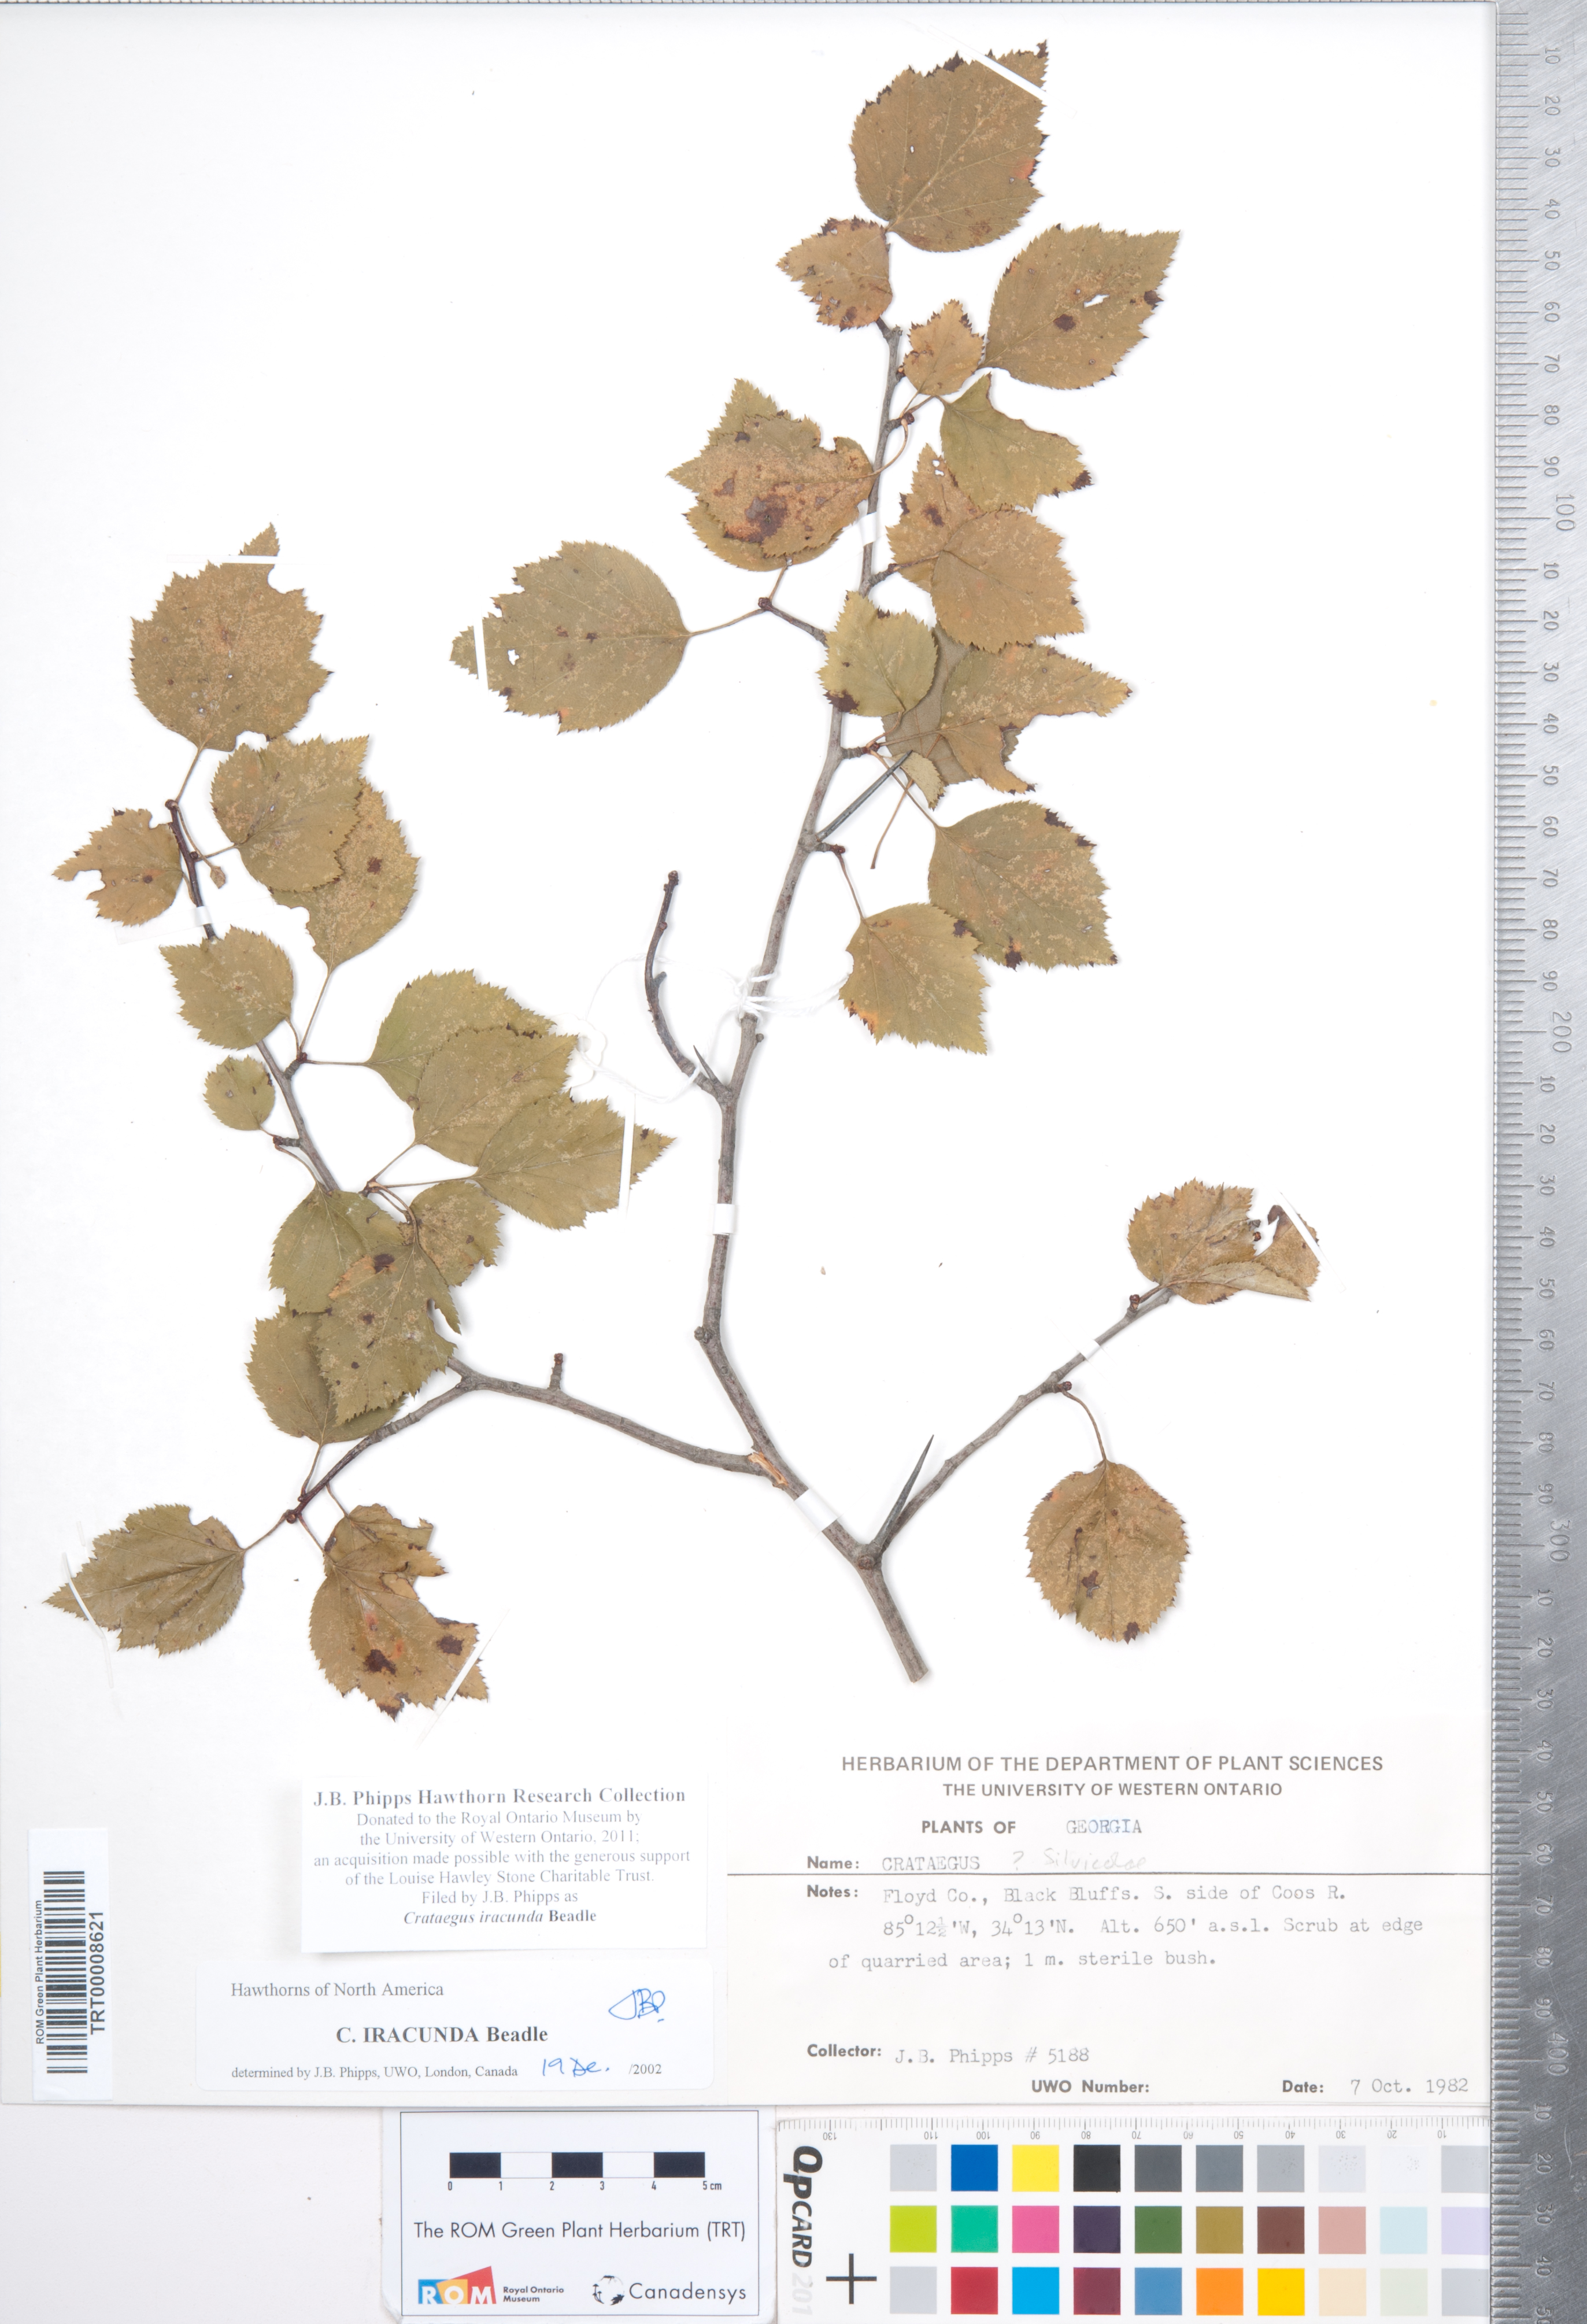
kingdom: Plantae
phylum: Tracheophyta
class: Magnoliopsida
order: Rosales
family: Rosaceae
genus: Crataegus
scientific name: Crataegus iracunda
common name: Stolon-bearing hawthorn
